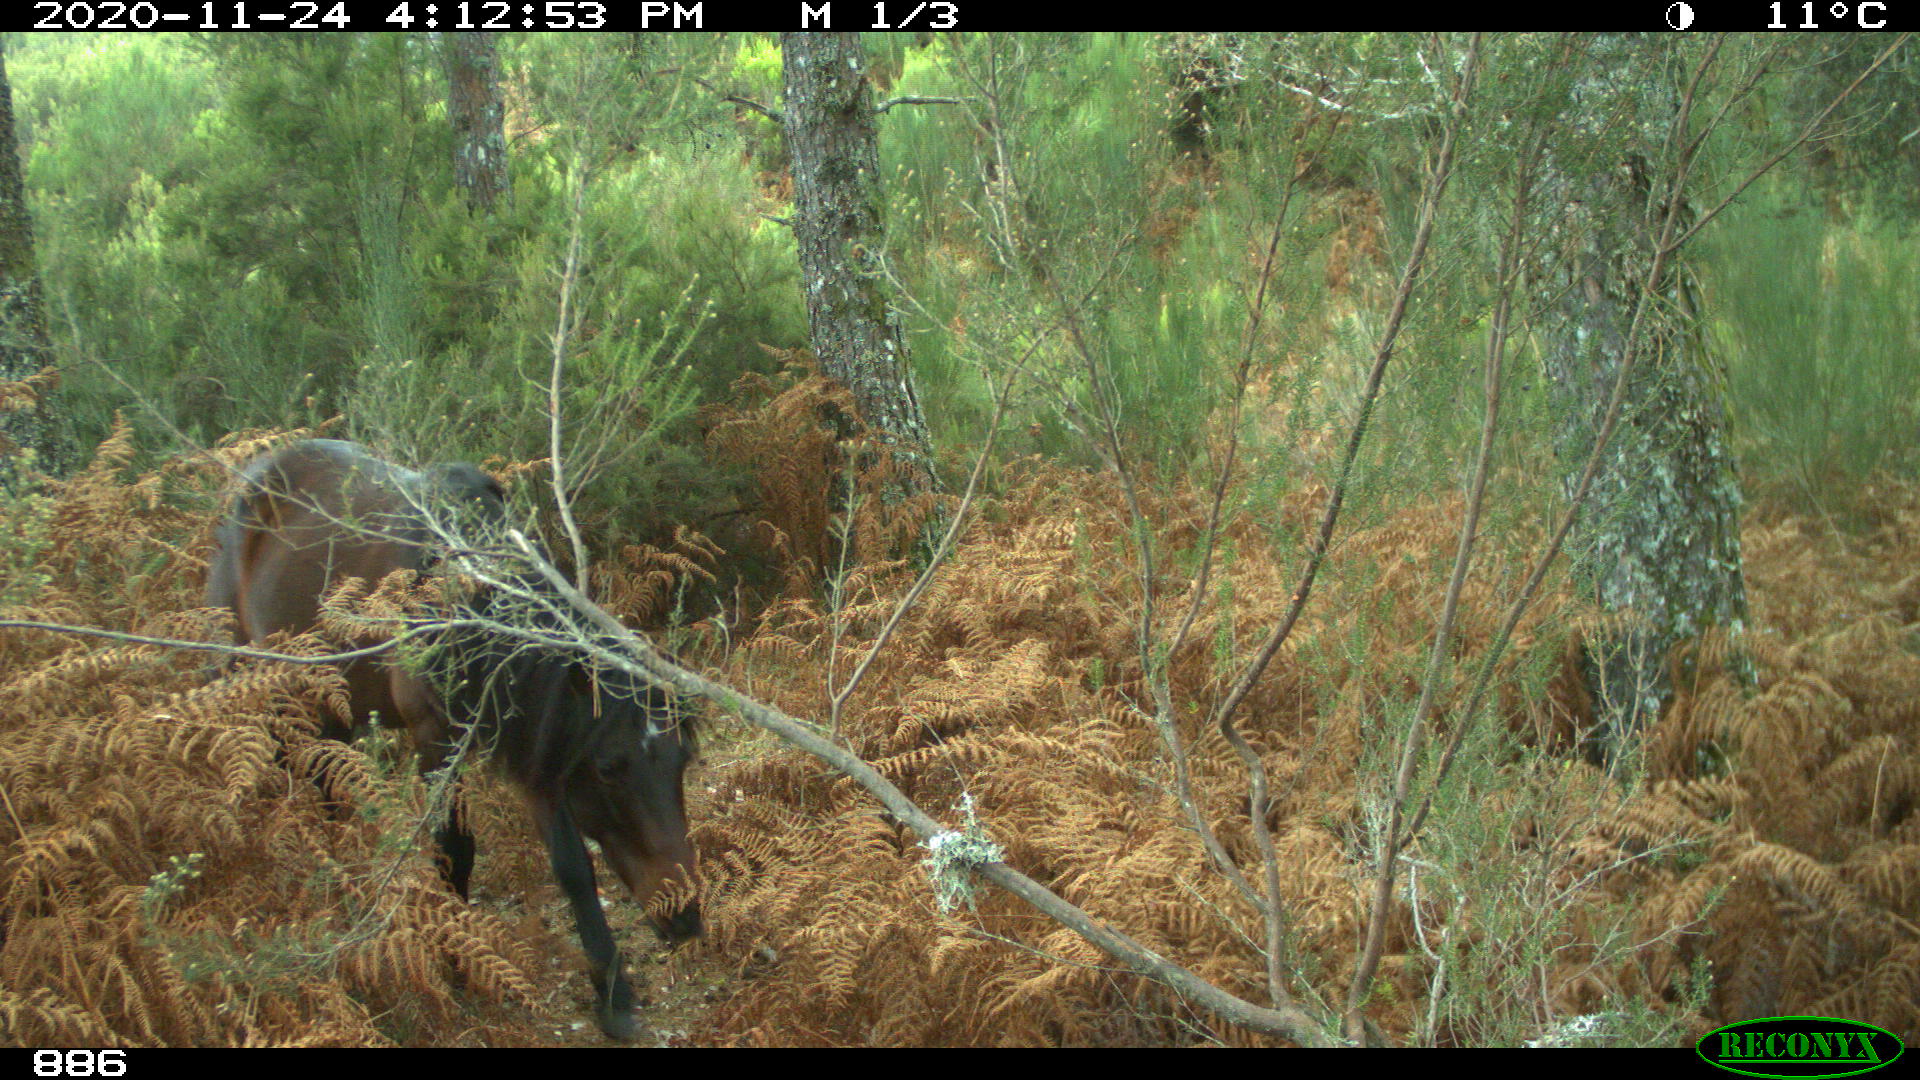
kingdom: Animalia
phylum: Chordata
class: Mammalia
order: Perissodactyla
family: Equidae
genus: Equus
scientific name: Equus caballus
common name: Horse
